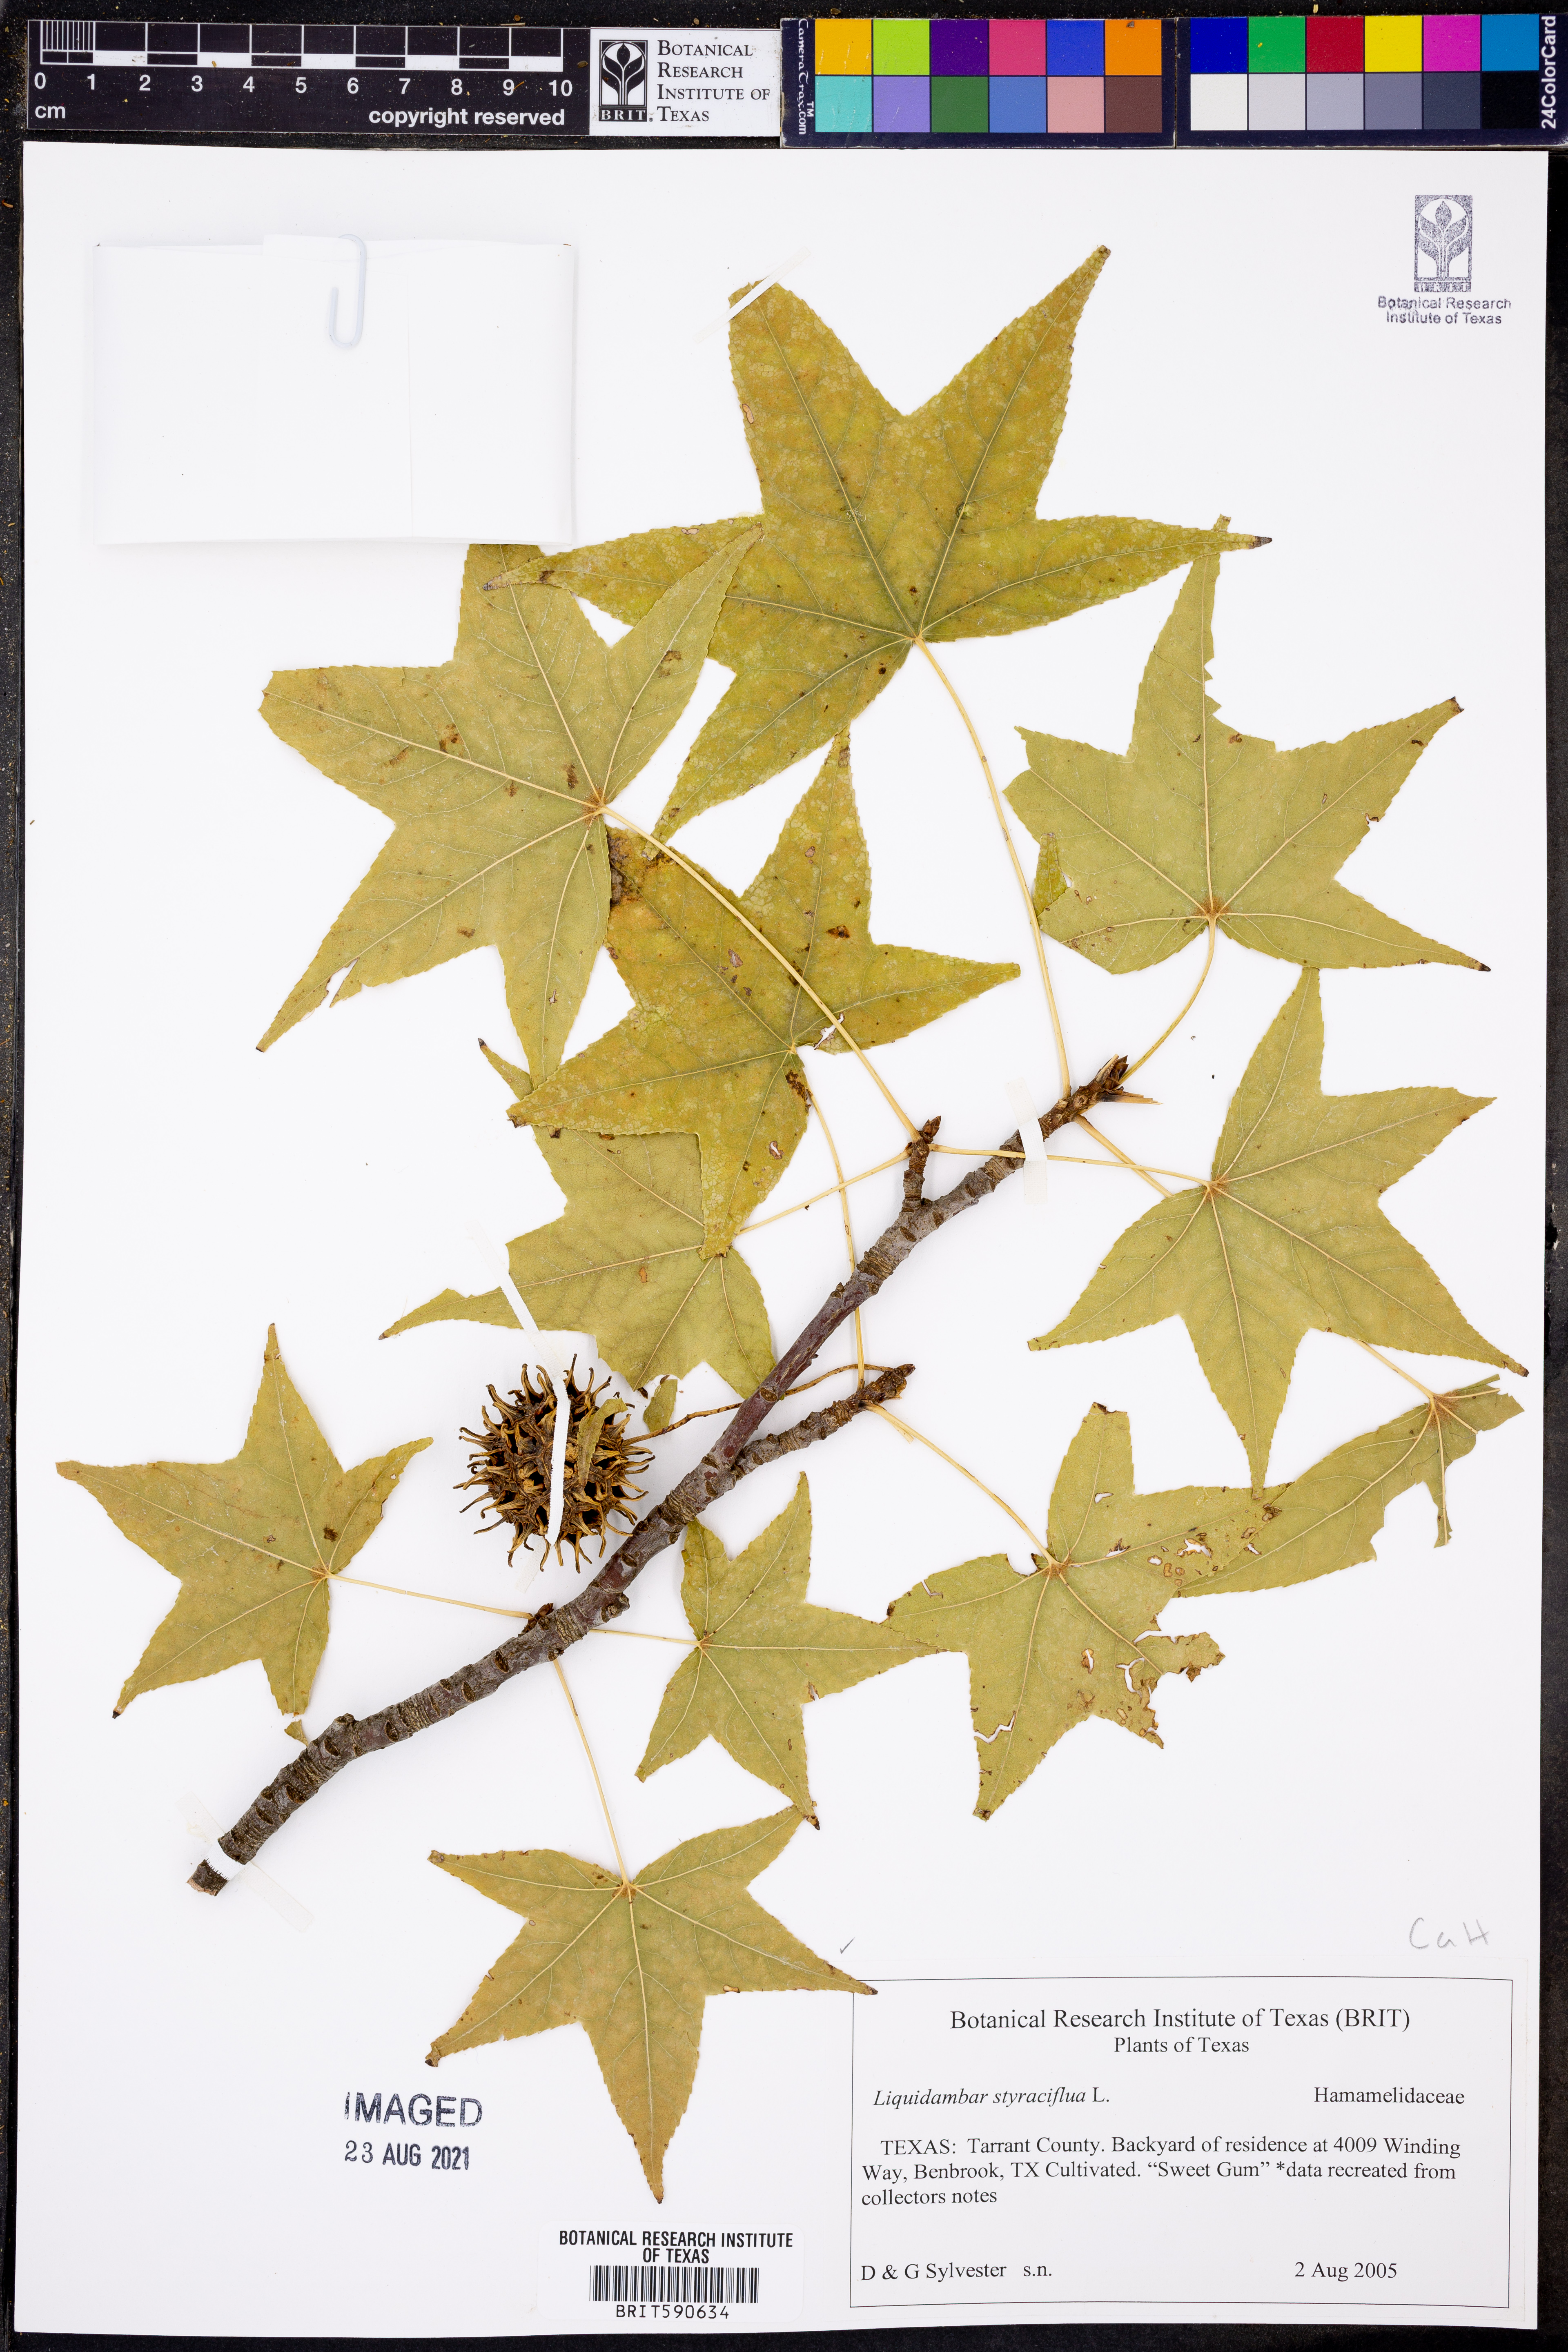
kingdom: Plantae
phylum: Tracheophyta
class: Magnoliopsida
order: Saxifragales
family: Altingiaceae
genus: Liquidambar
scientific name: Liquidambar styraciflua
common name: Sweet gum
